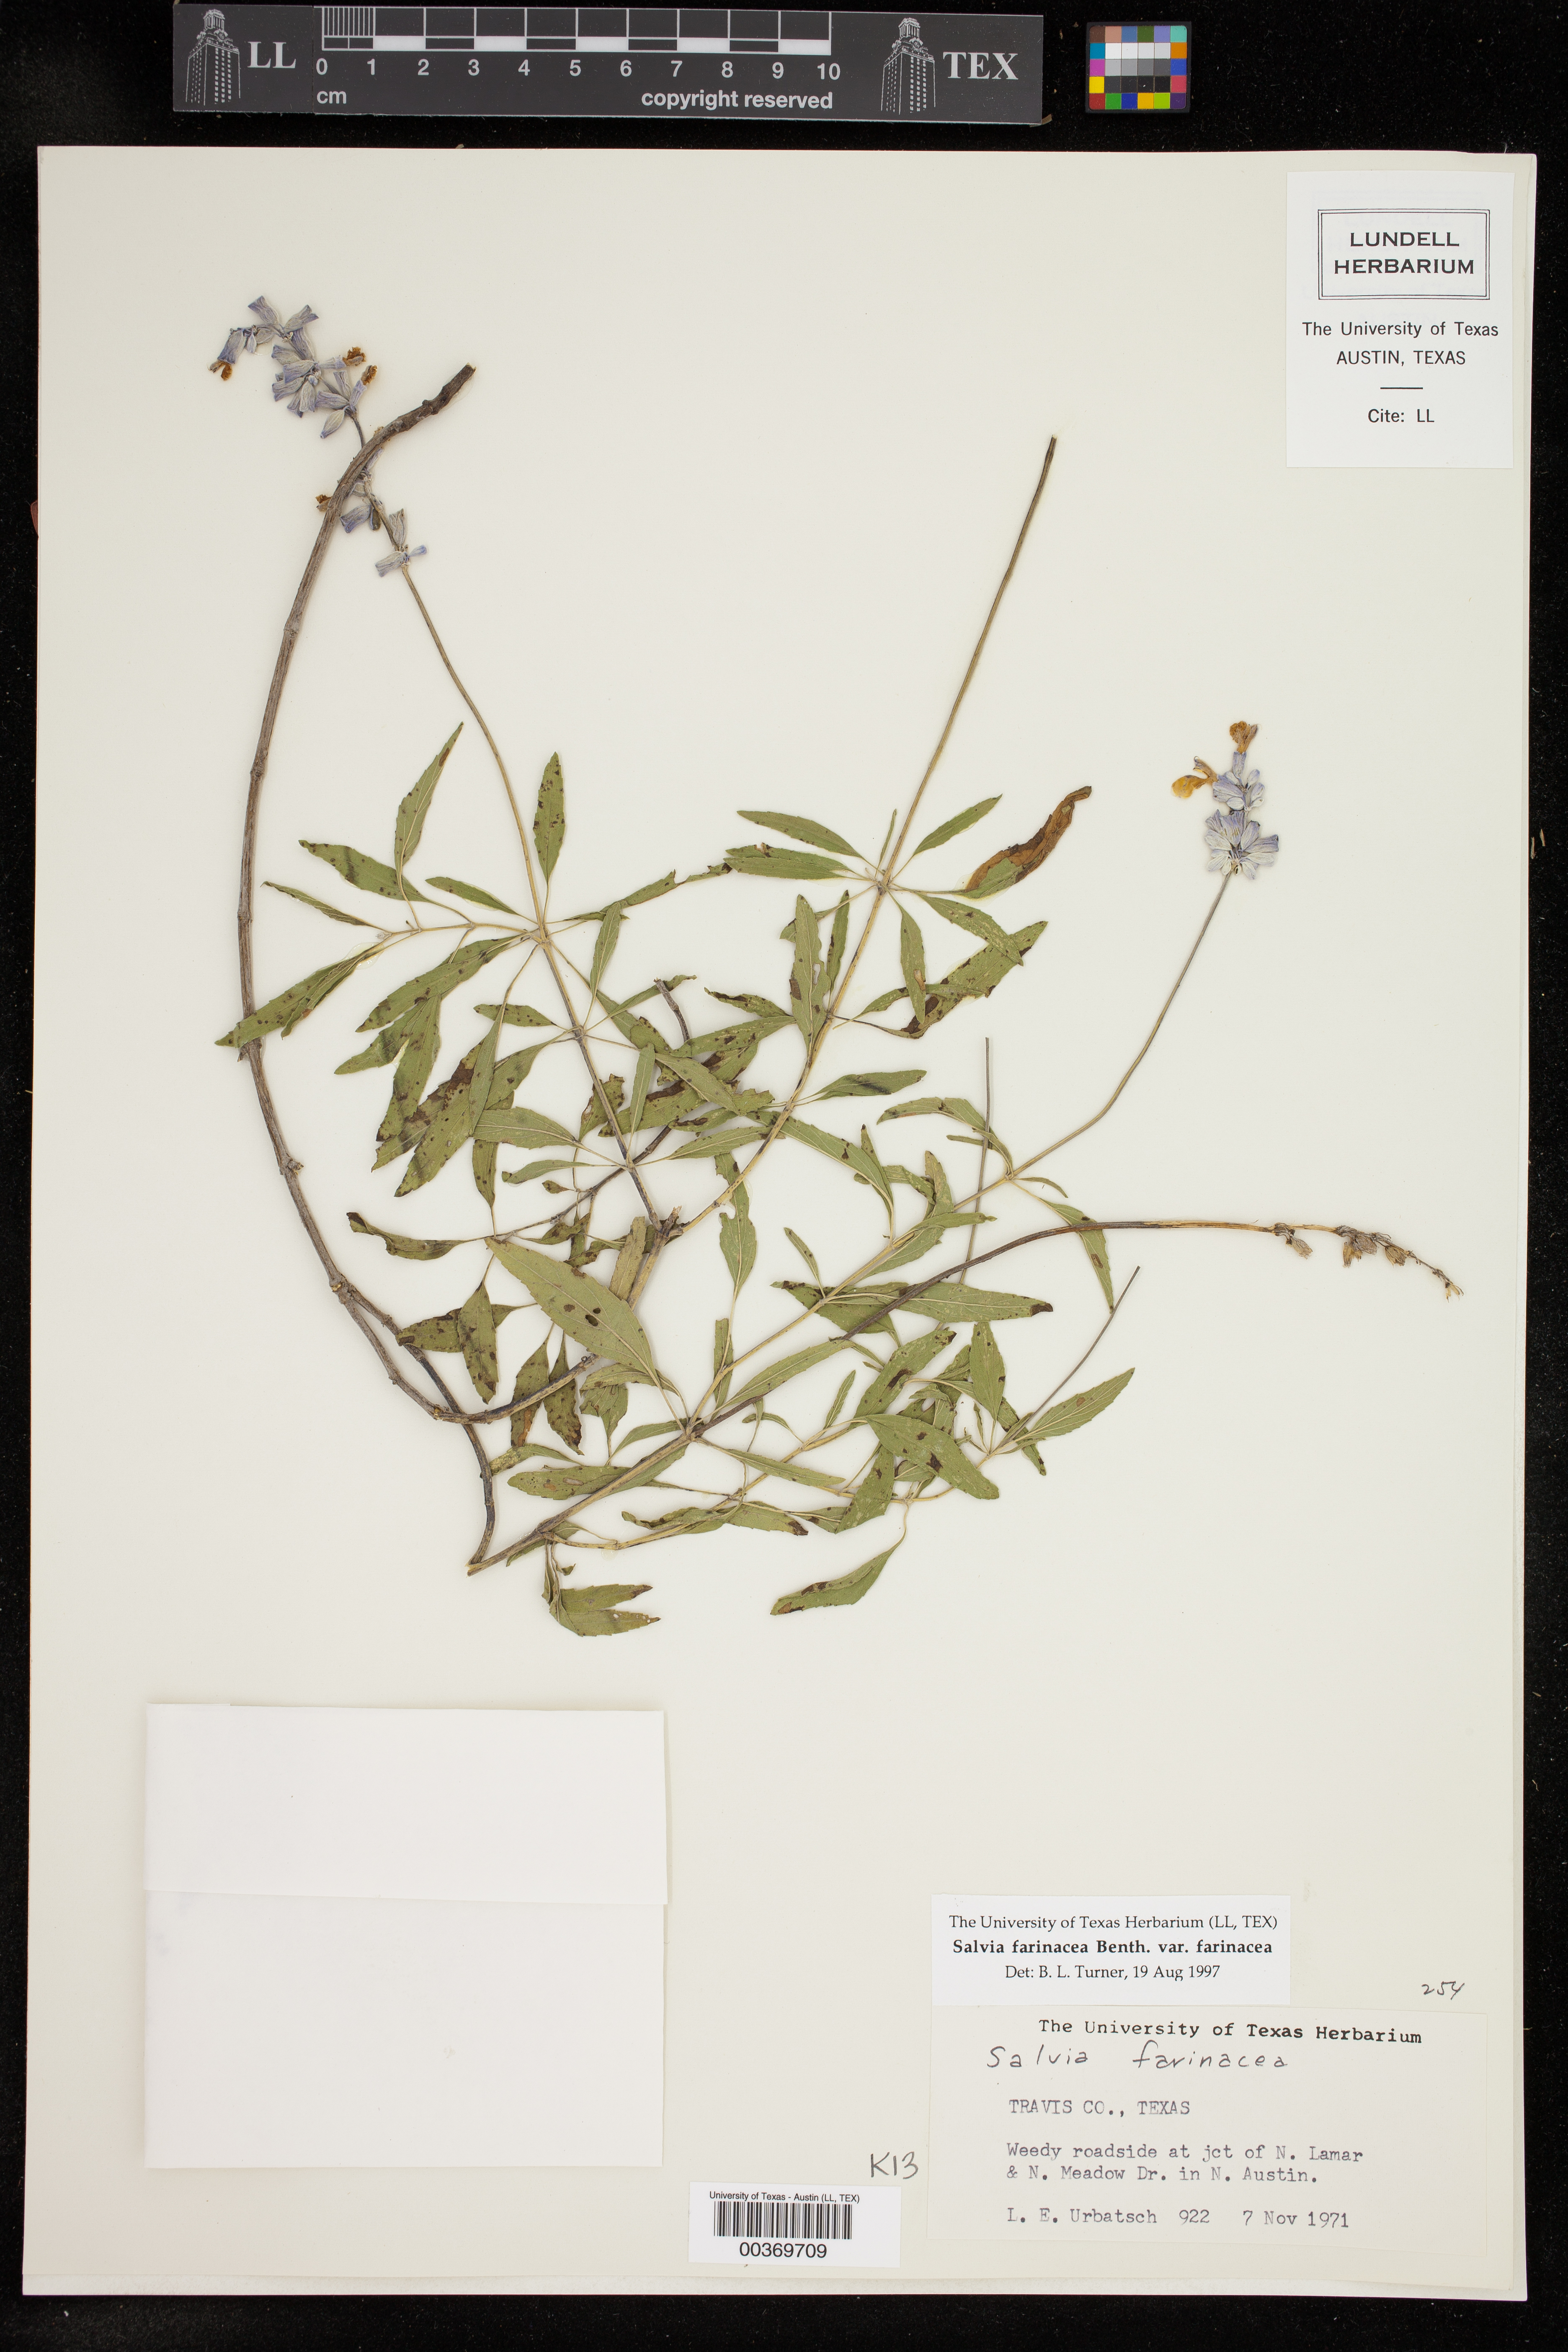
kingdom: Plantae
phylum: Tracheophyta
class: Magnoliopsida
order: Lamiales
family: Lamiaceae
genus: Salvia
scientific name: Salvia farinacea
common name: Mealy sage
